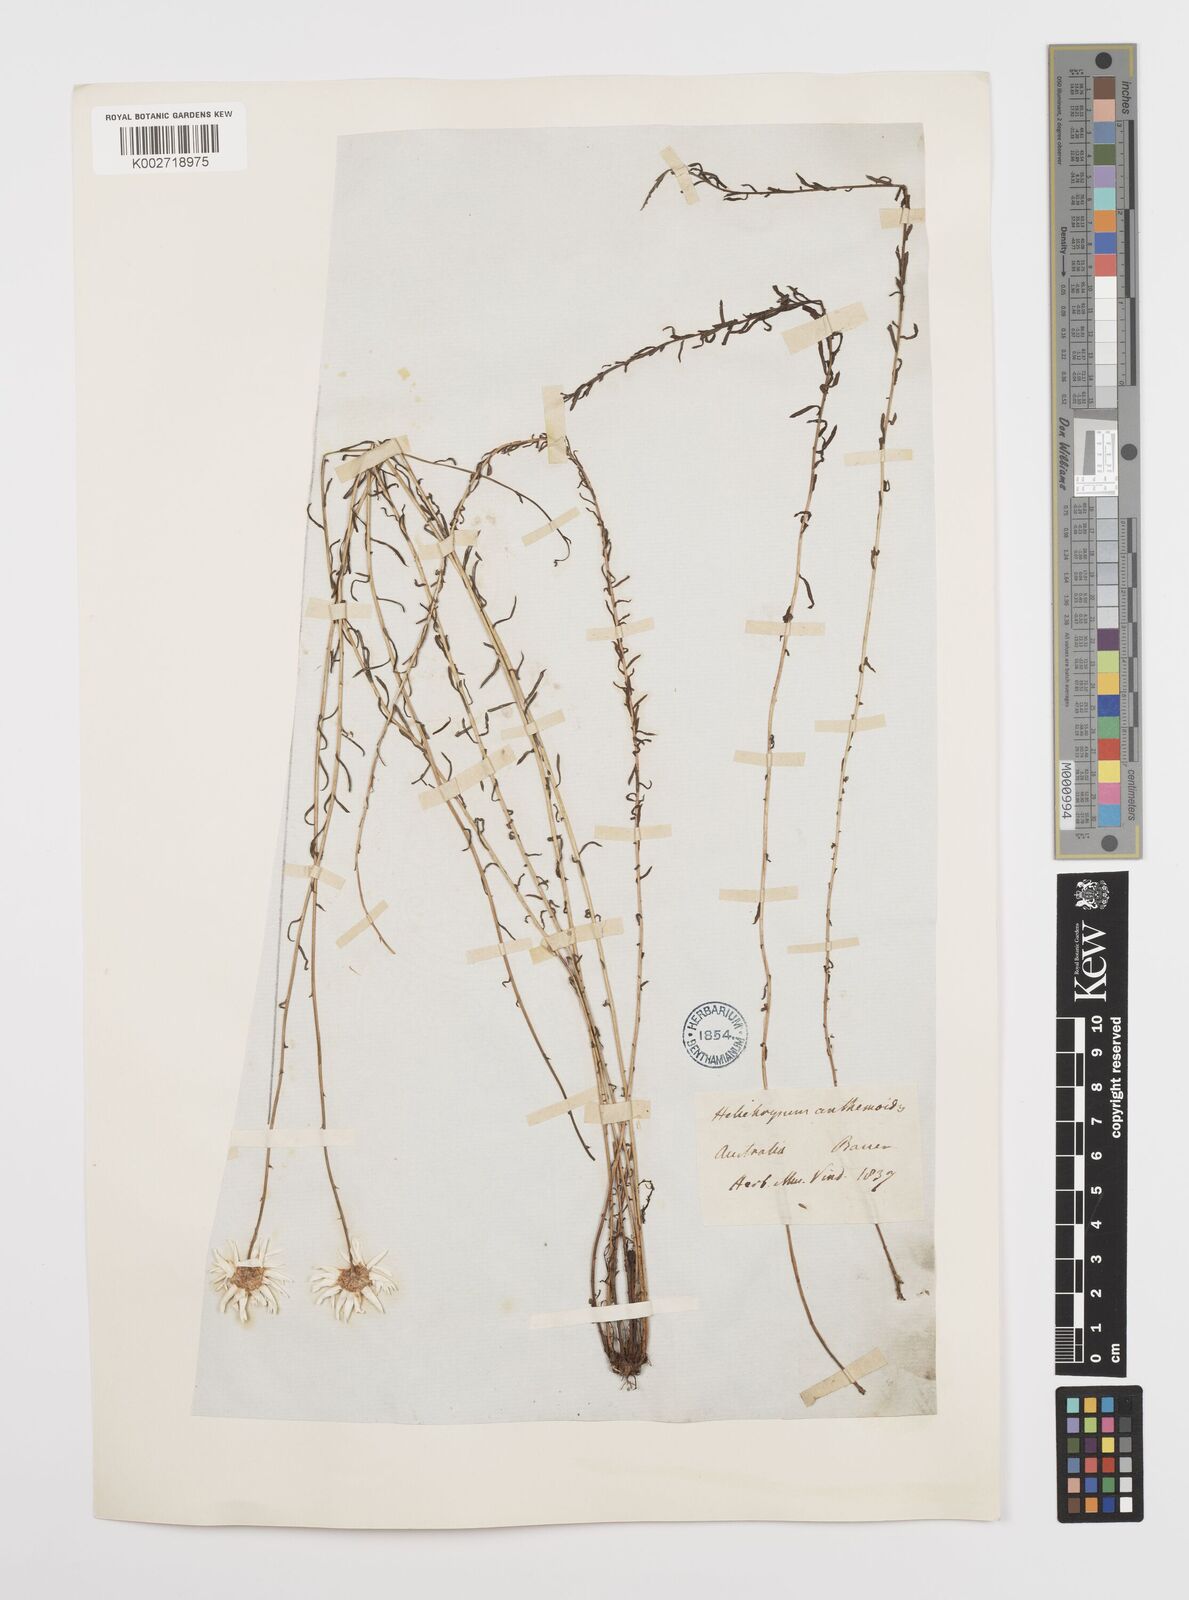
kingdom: Plantae
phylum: Tracheophyta
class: Magnoliopsida
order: Asterales
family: Asteraceae
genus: Rhodanthe
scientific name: Rhodanthe anthemoides
